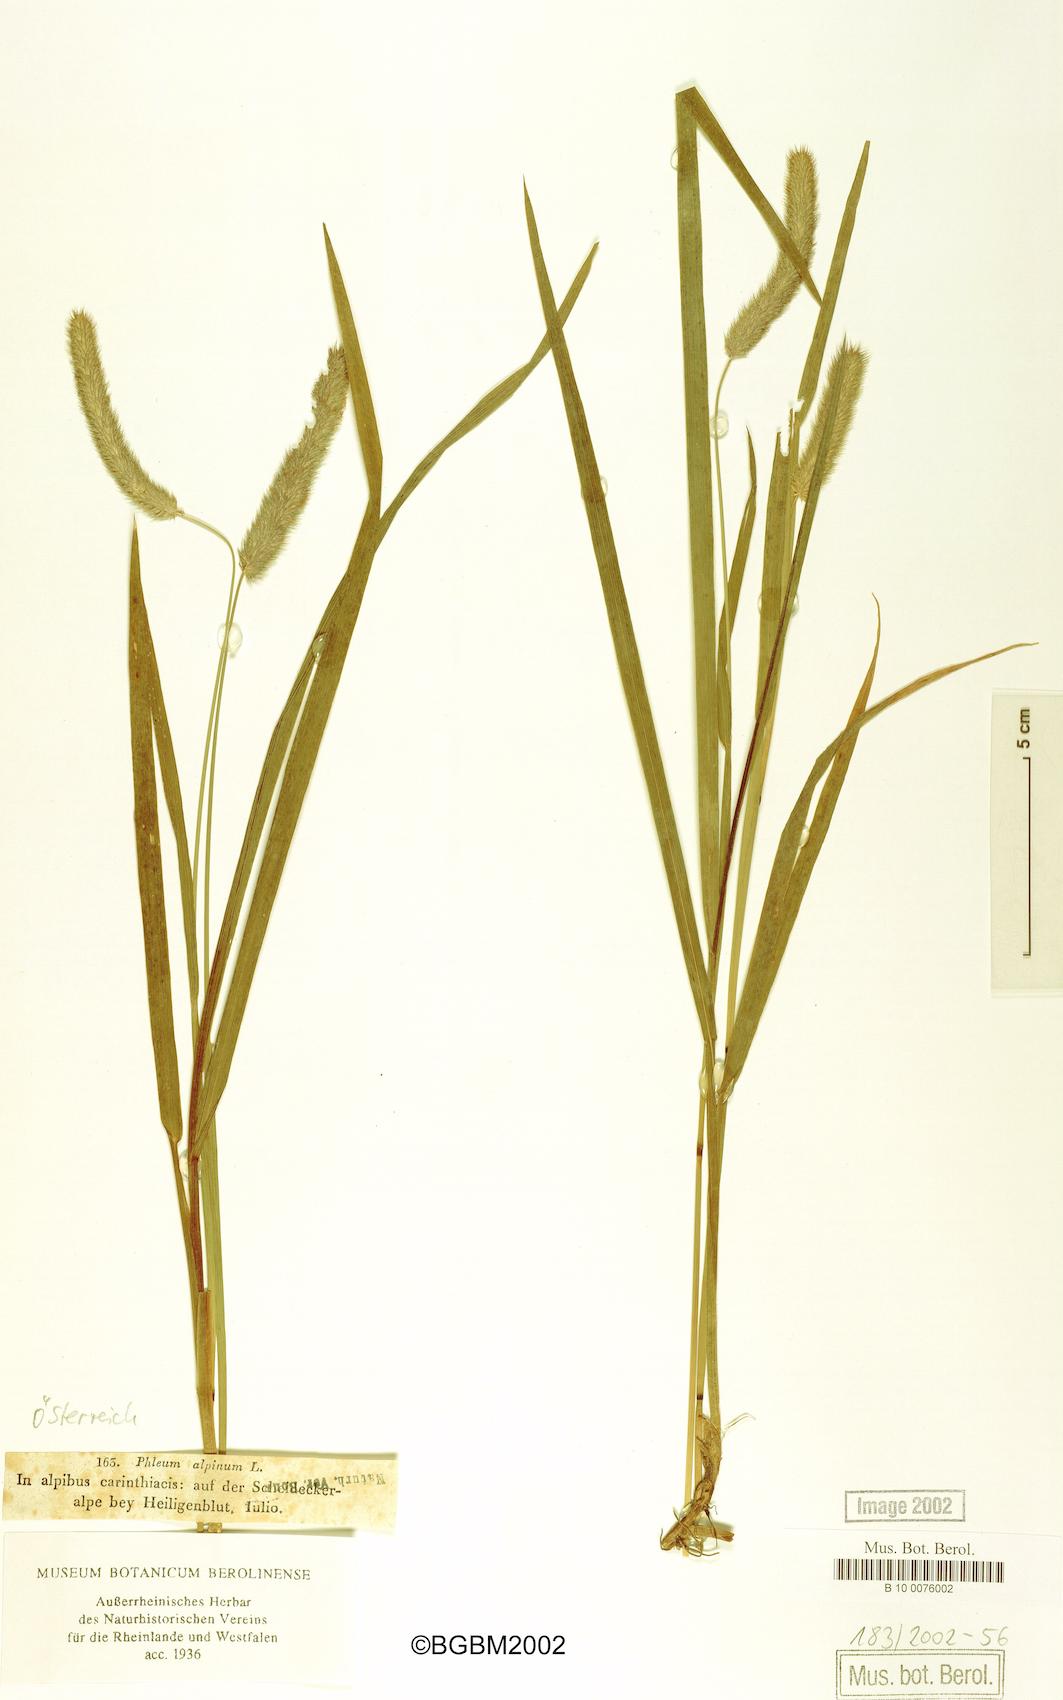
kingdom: Plantae
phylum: Tracheophyta
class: Liliopsida
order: Poales
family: Poaceae
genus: Phleum
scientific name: Phleum alpinum
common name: Alpine cat's-tail
